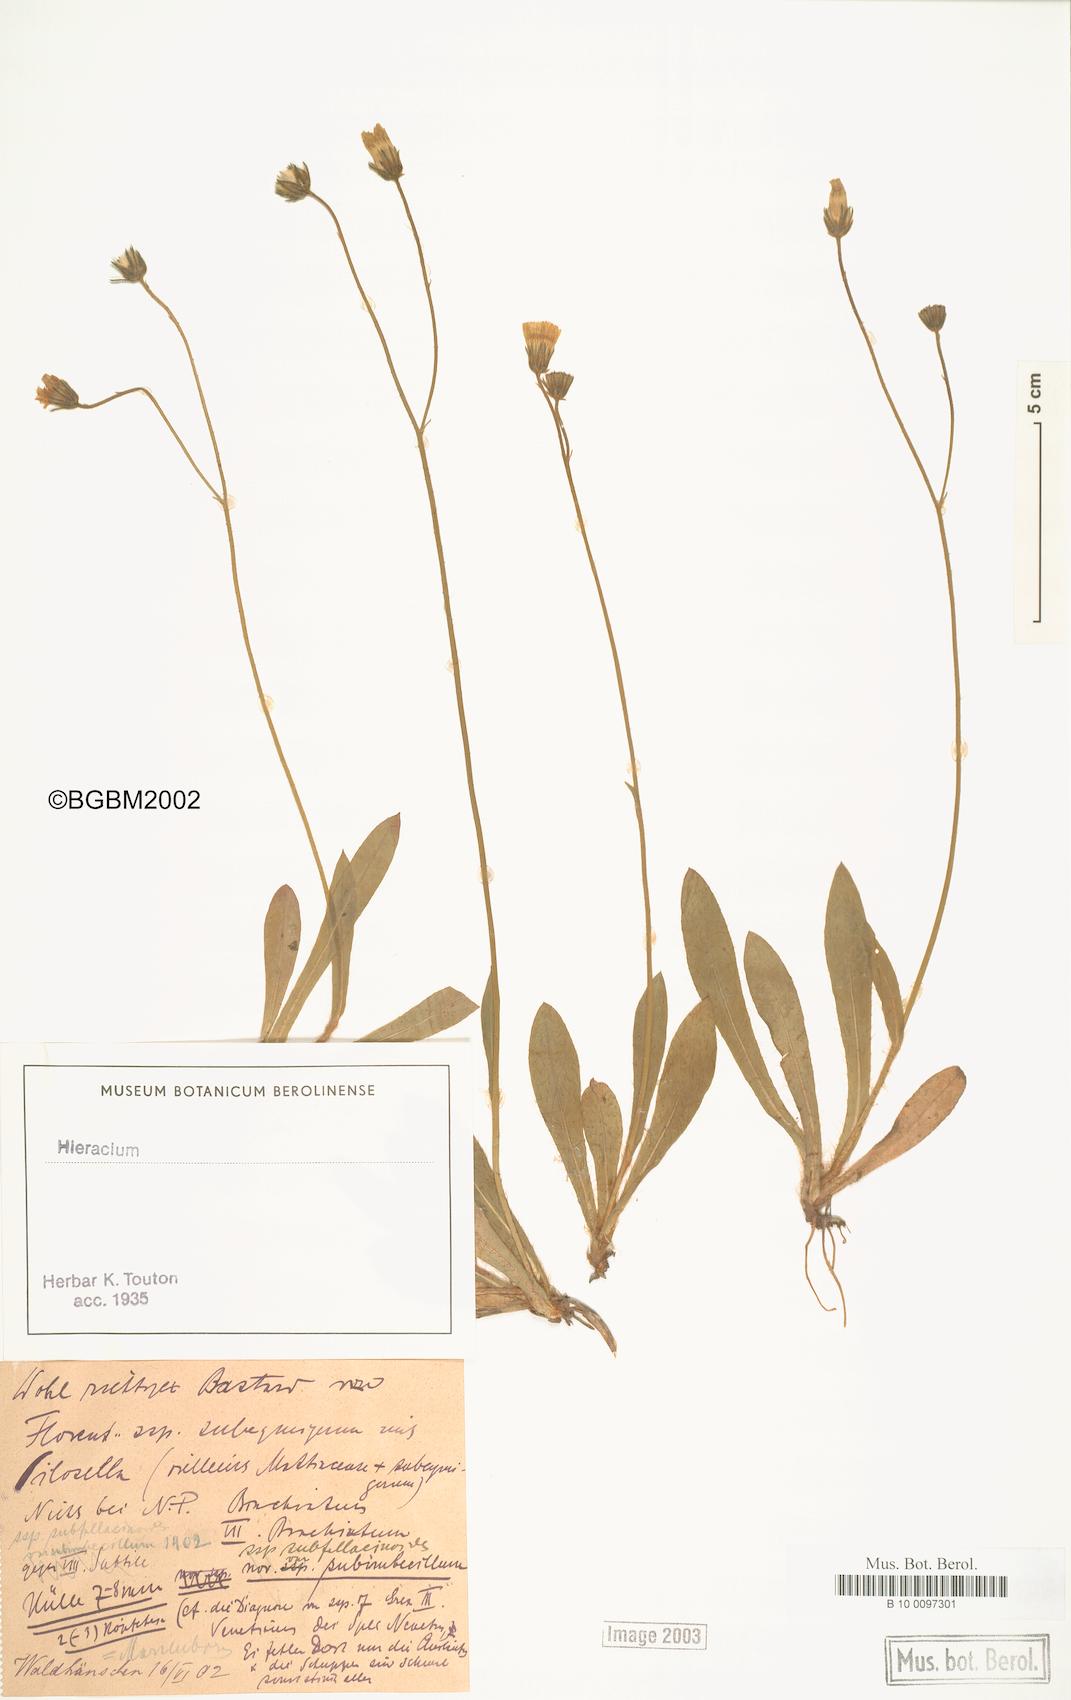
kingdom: Plantae
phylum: Tracheophyta
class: Magnoliopsida
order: Asterales
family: Asteraceae
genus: Pilosella
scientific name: Pilosella acutifolia
